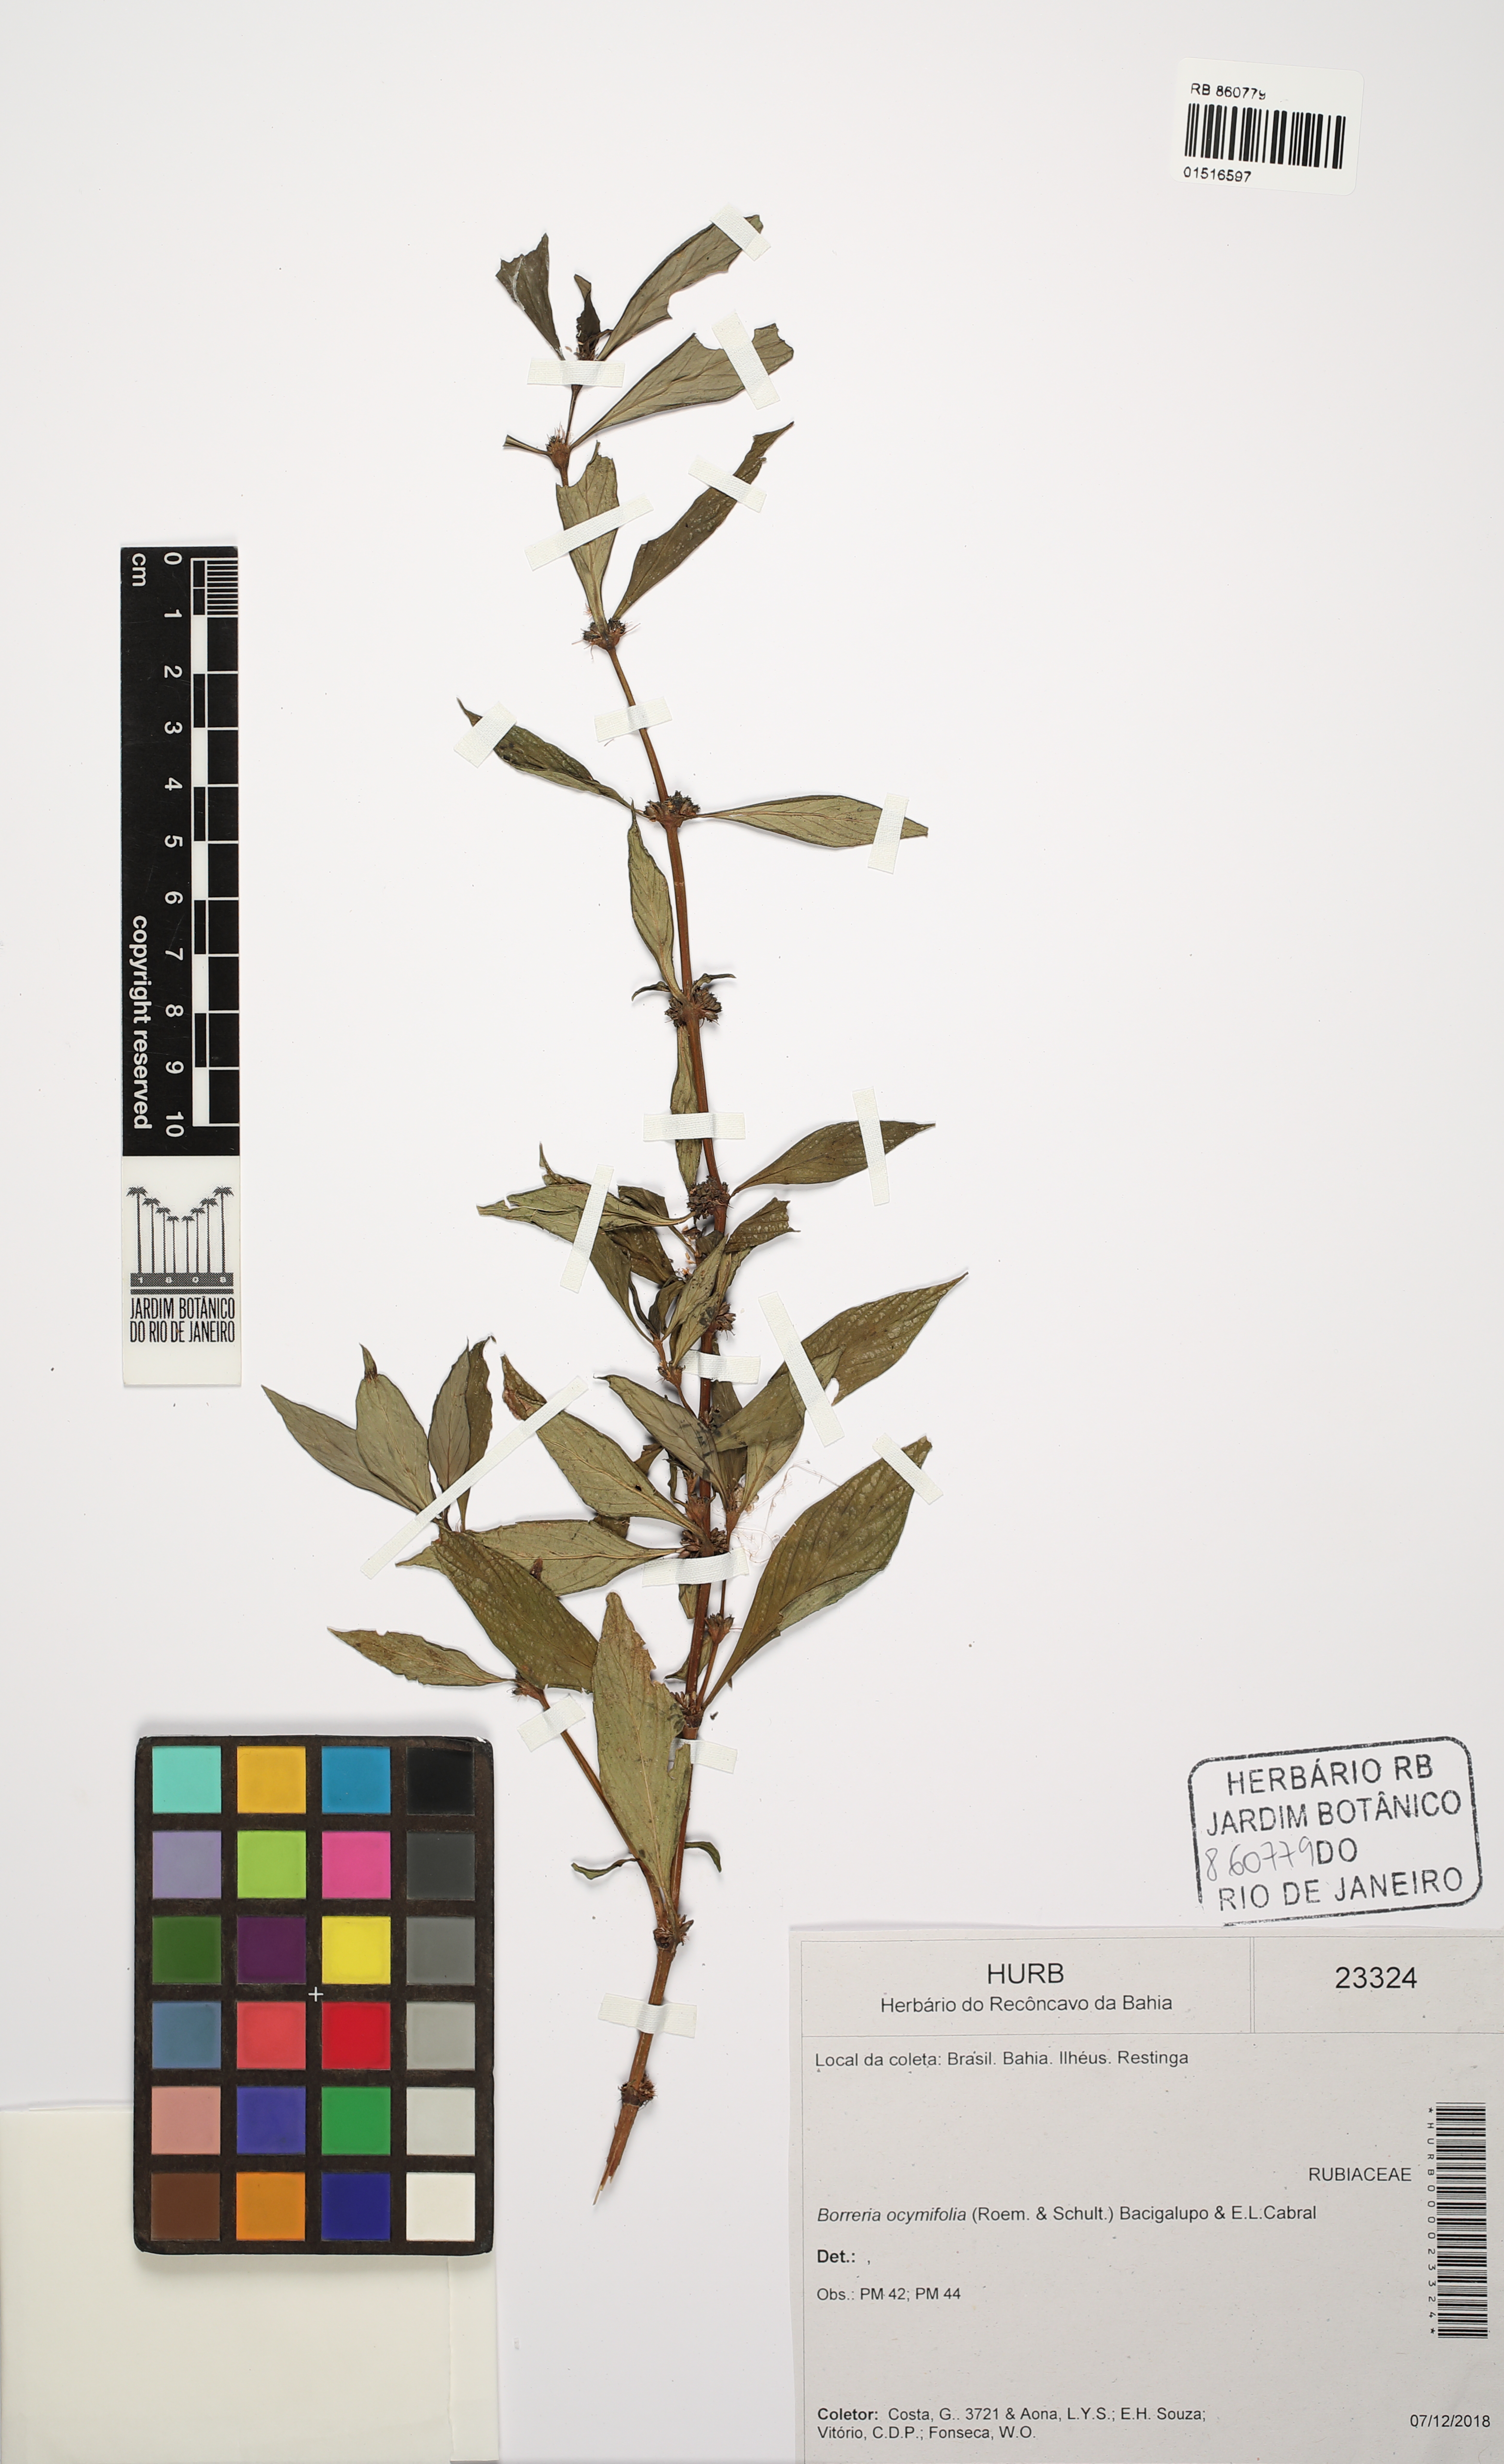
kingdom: Plantae
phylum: Tracheophyta
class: Magnoliopsida
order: Gentianales
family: Rubiaceae
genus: Spermacoce
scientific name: Spermacoce ocymifolia
